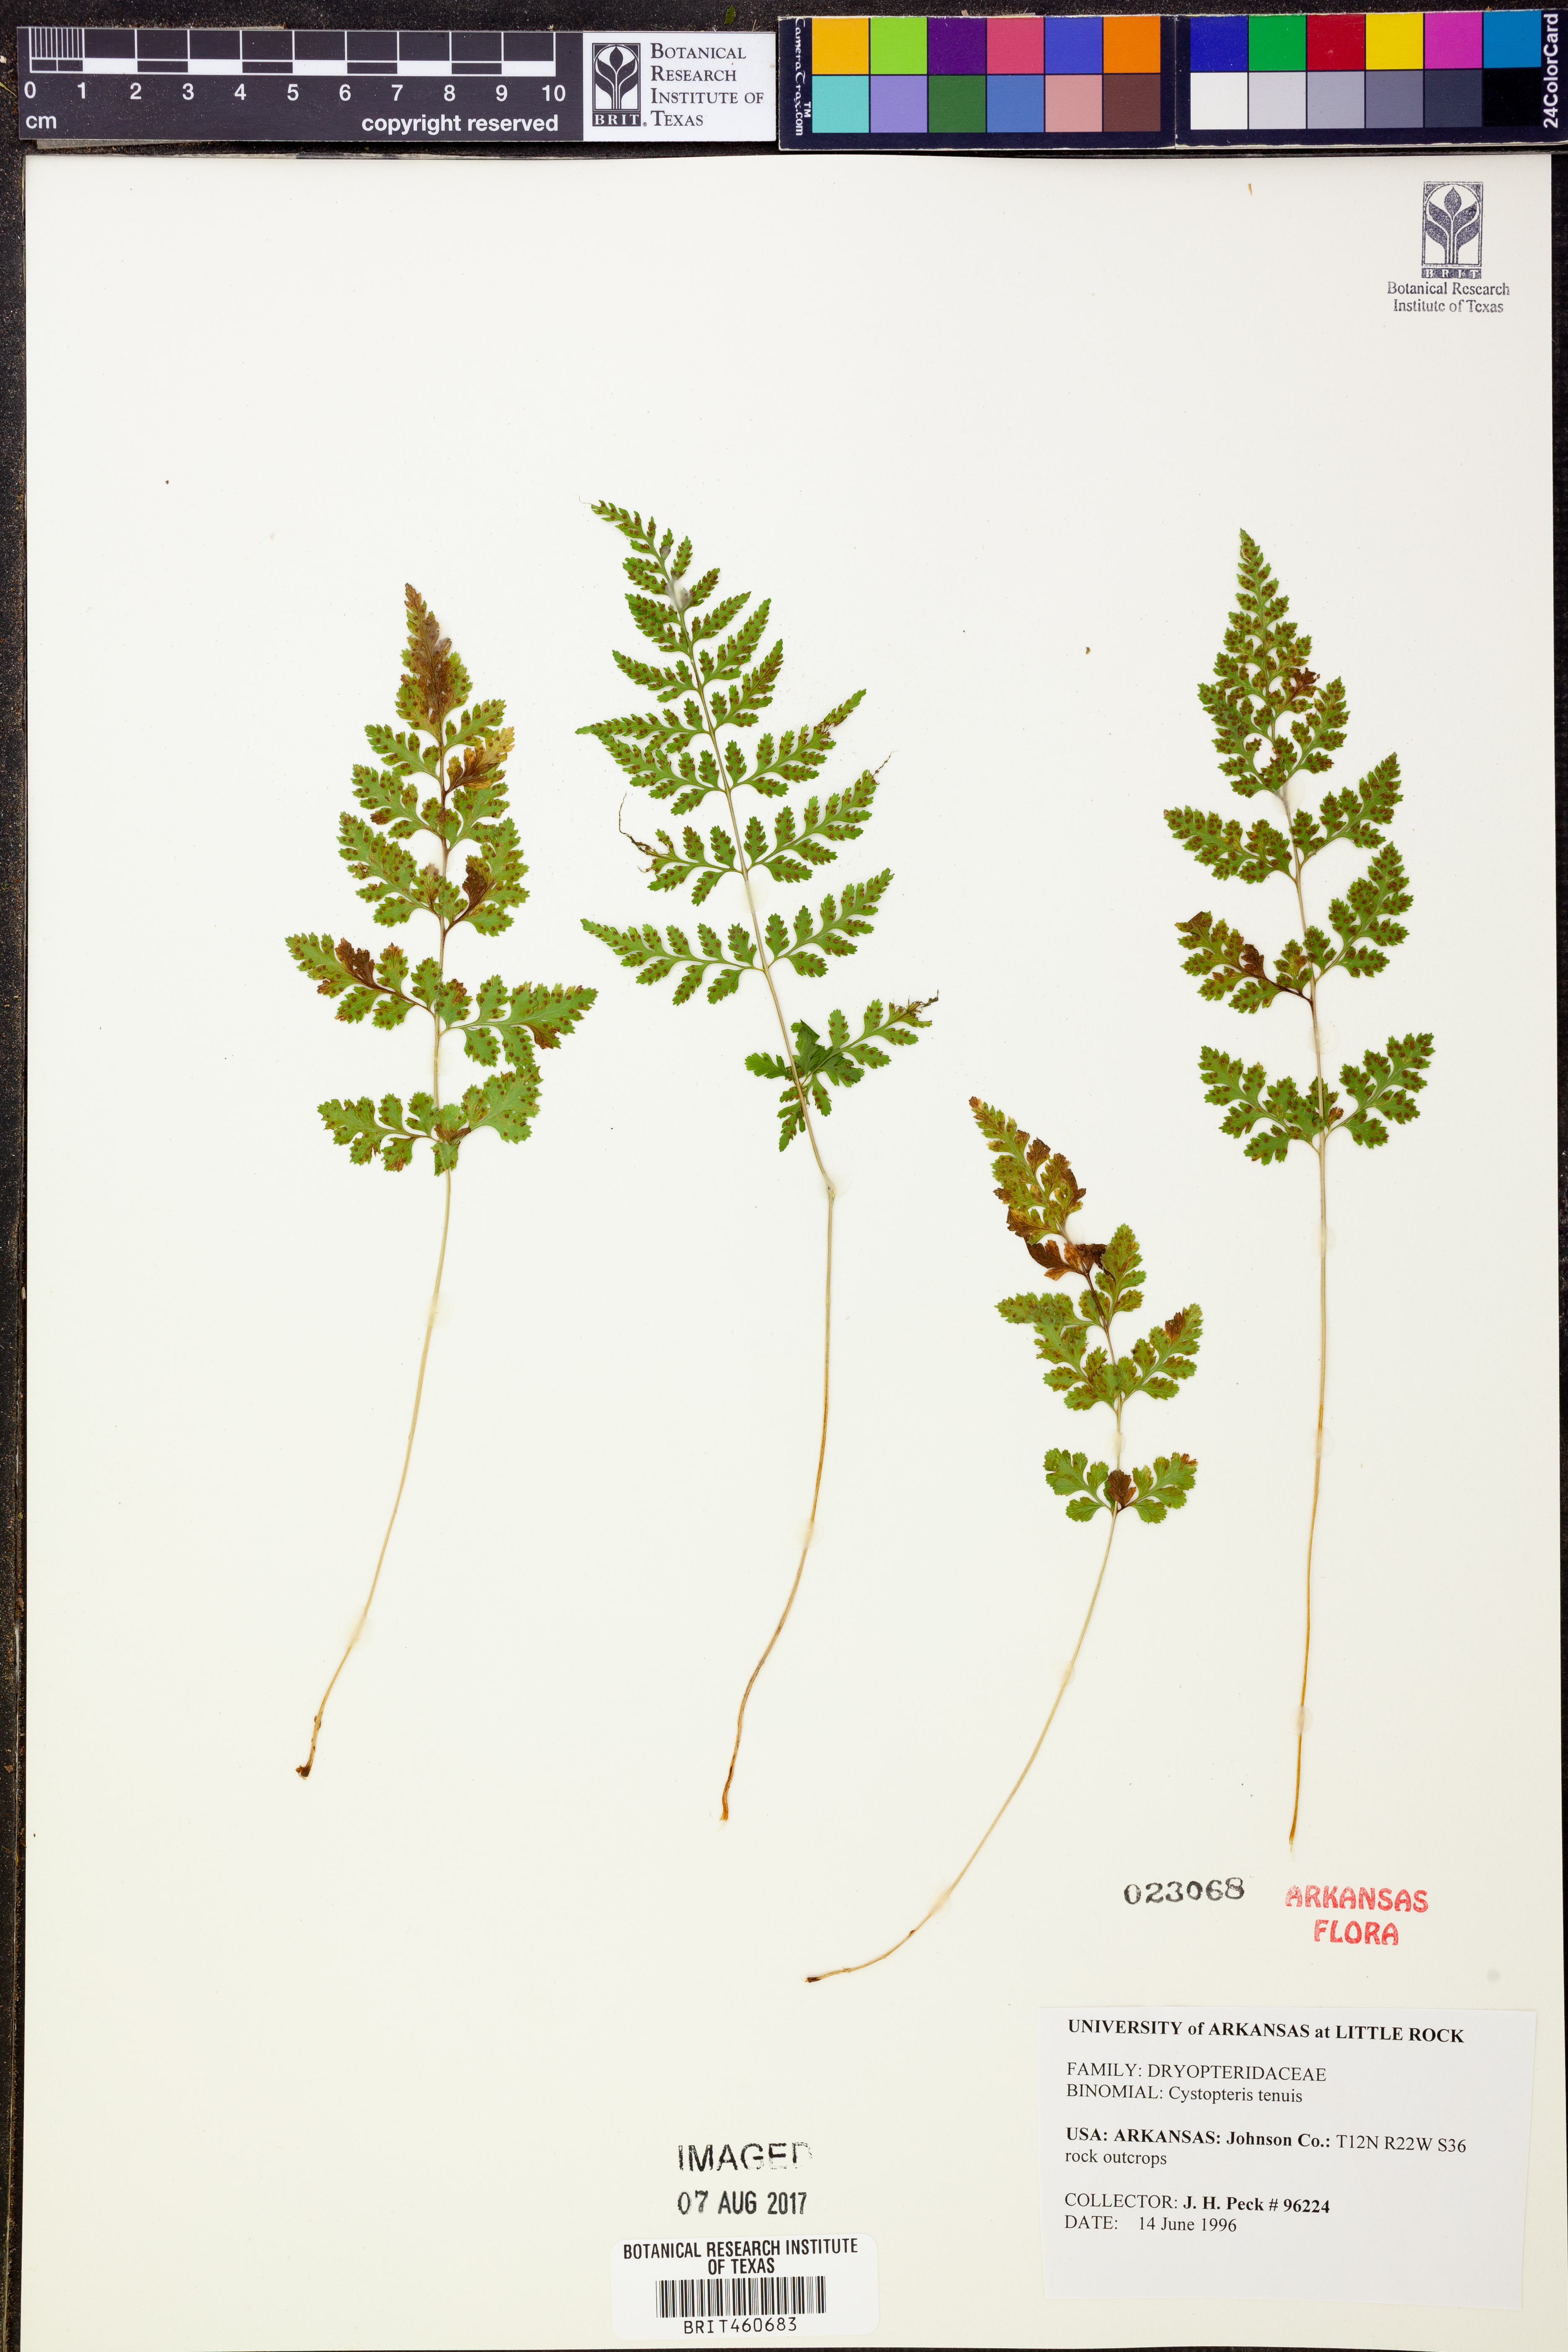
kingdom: Plantae
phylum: Tracheophyta
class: Polypodiopsida
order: Polypodiales
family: Cystopteridaceae
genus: Cystopteris
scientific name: Cystopteris tenuis
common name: Mackay's brittle fern
